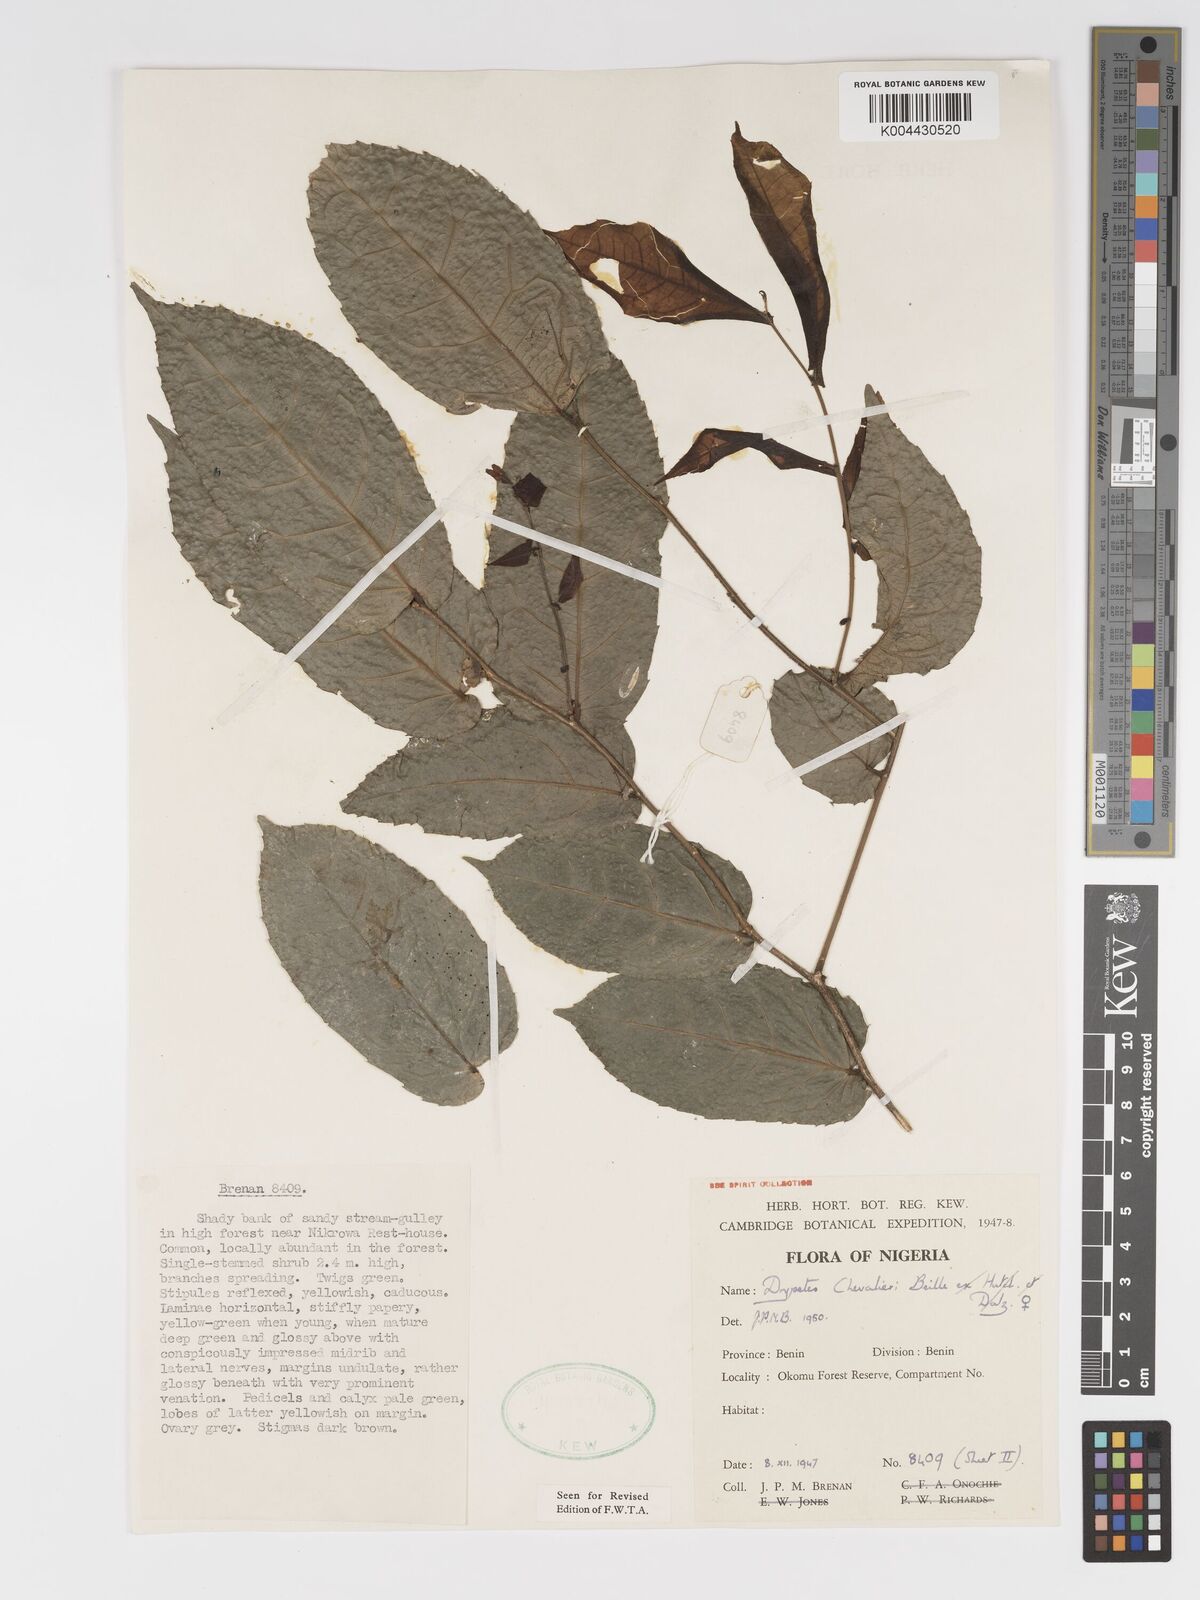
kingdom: Plantae
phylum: Tracheophyta
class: Magnoliopsida
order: Malpighiales
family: Putranjivaceae
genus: Drypetes
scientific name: Drypetes chevalieri
